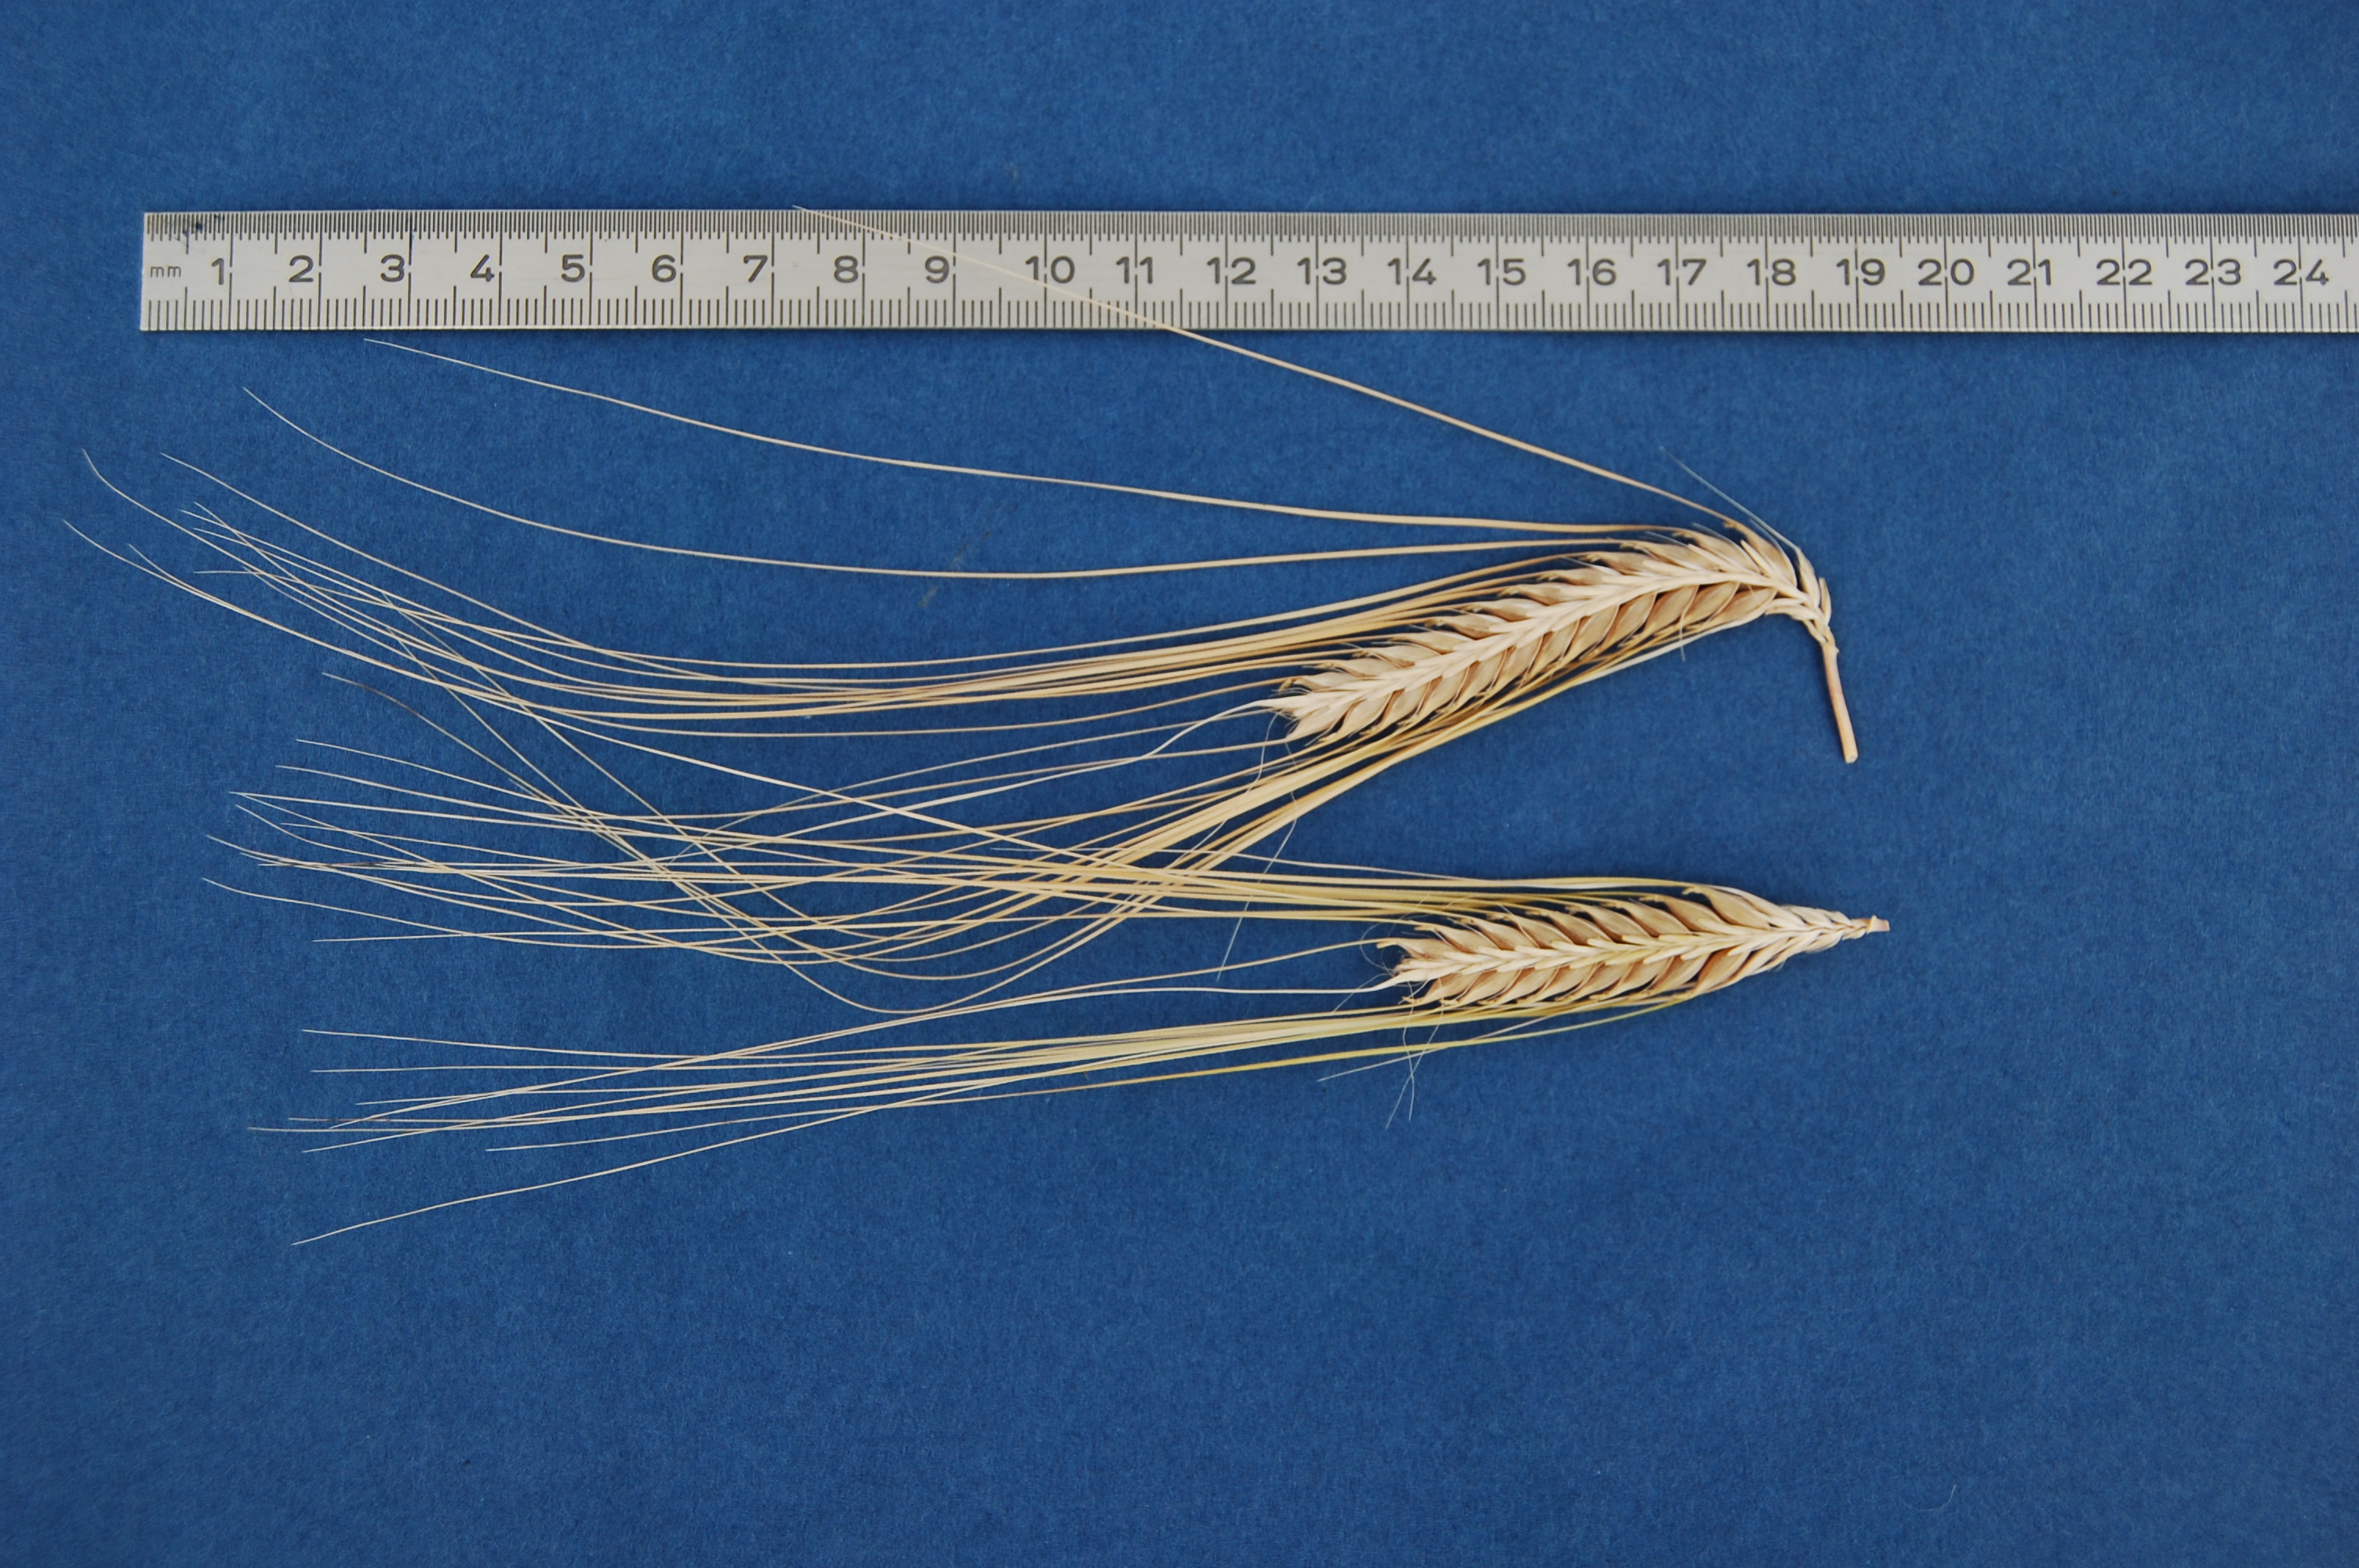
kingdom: Plantae
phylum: Tracheophyta
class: Liliopsida
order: Poales
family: Poaceae
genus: Hordeum
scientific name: Hordeum vulgare
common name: Common barley
